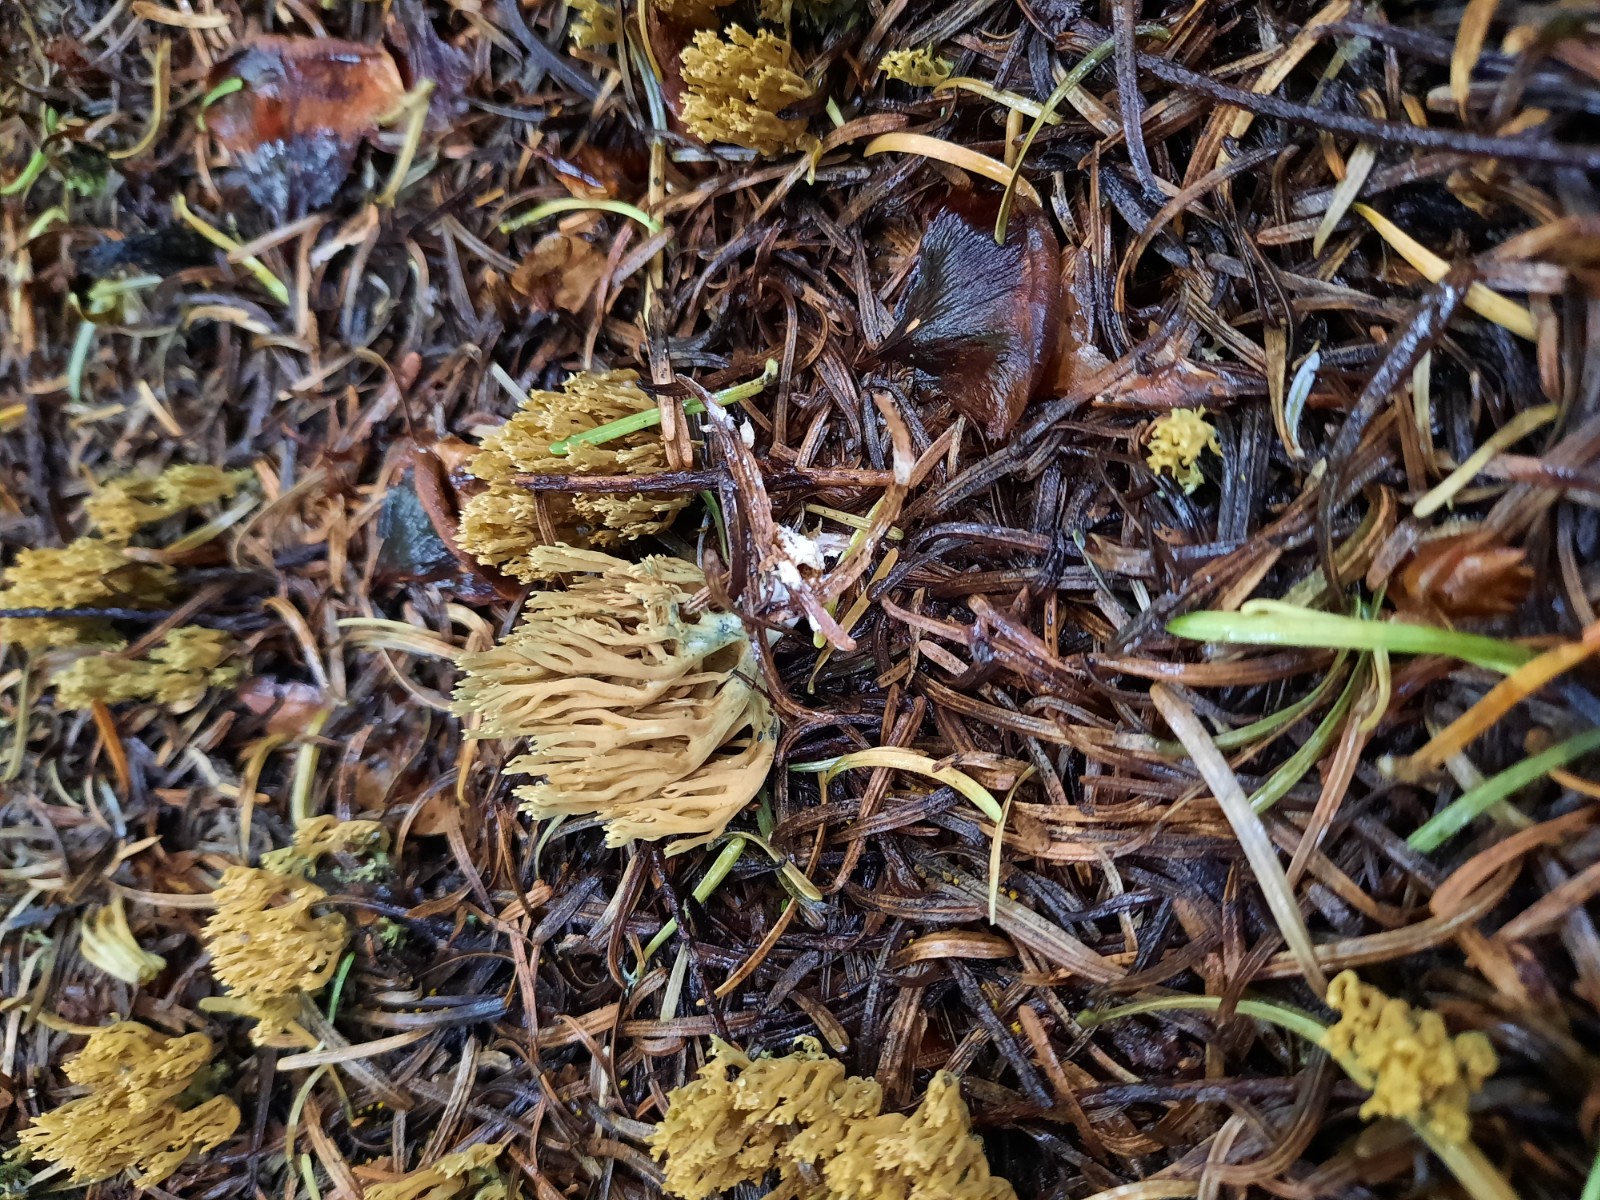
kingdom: Fungi
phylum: Basidiomycota
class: Agaricomycetes
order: Gomphales
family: Gomphaceae
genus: Phaeoclavulina
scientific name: Phaeoclavulina abietina
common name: gulgrøn koralsvamp
